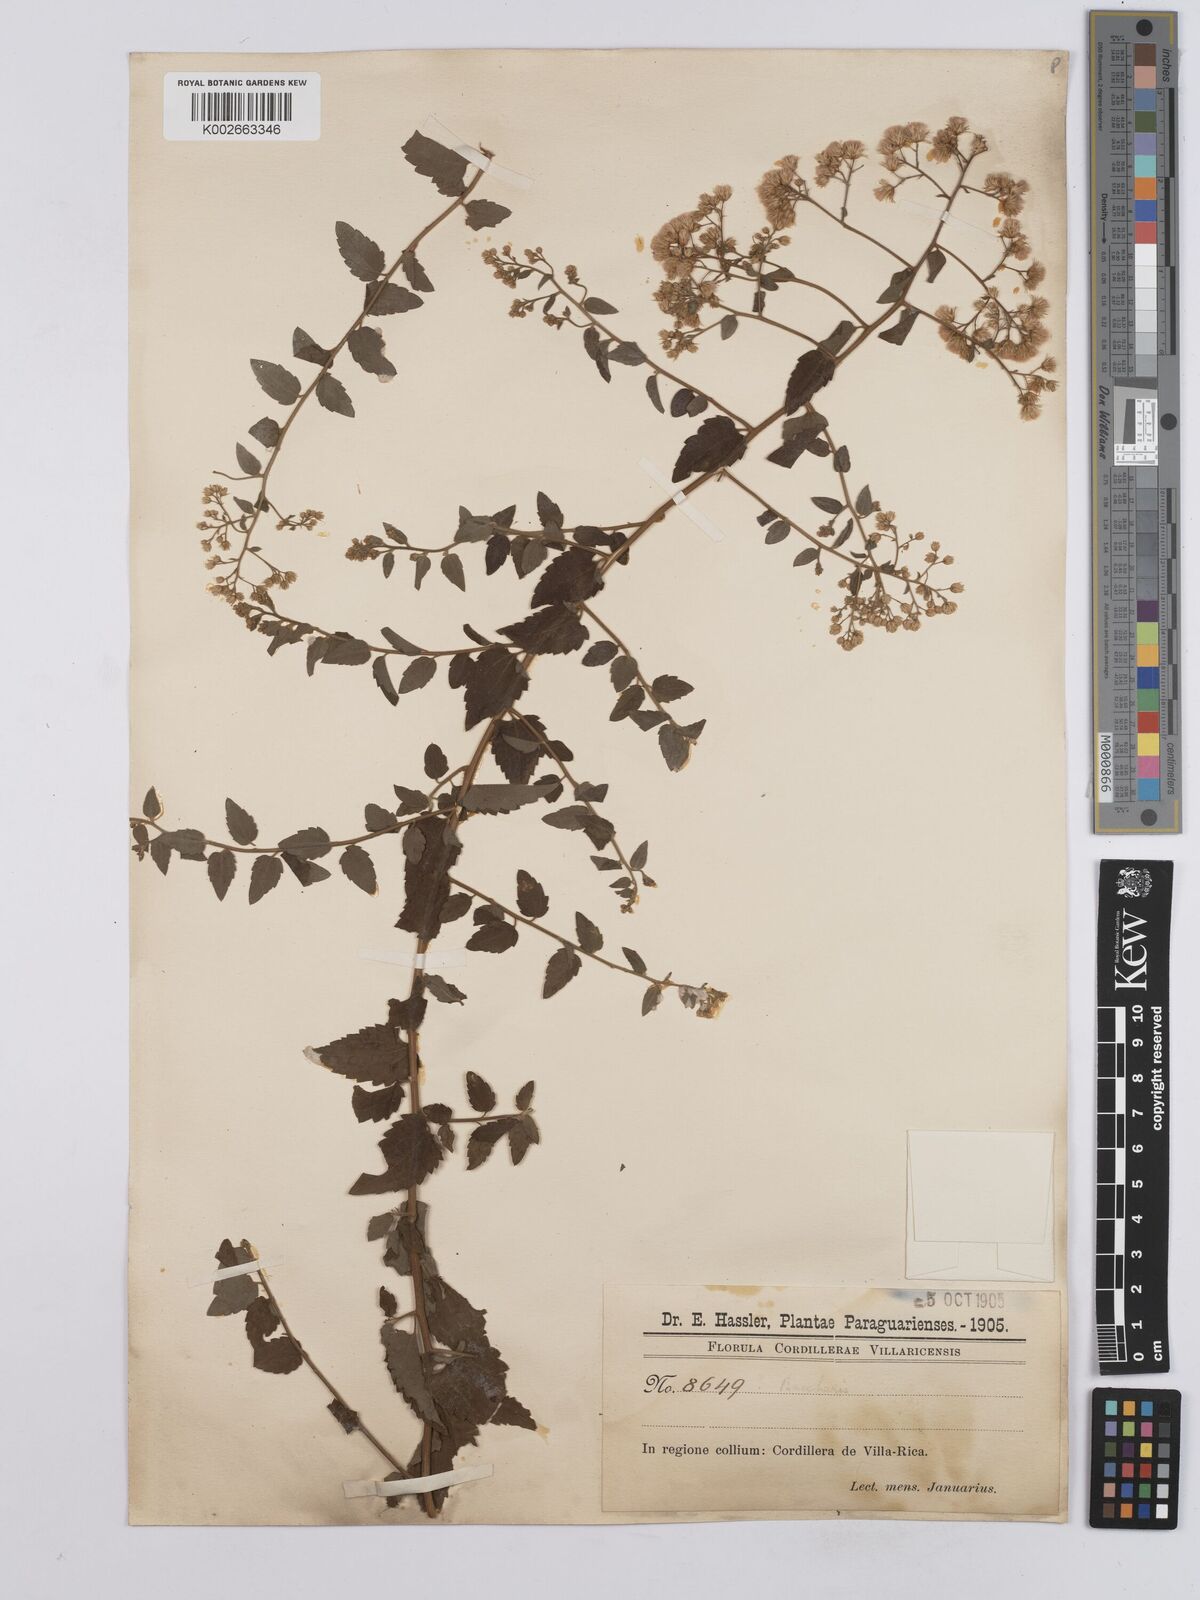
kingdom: Plantae
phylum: Tracheophyta
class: Magnoliopsida
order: Asterales
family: Asteraceae
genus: Baccharis
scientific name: Baccharis anomala
